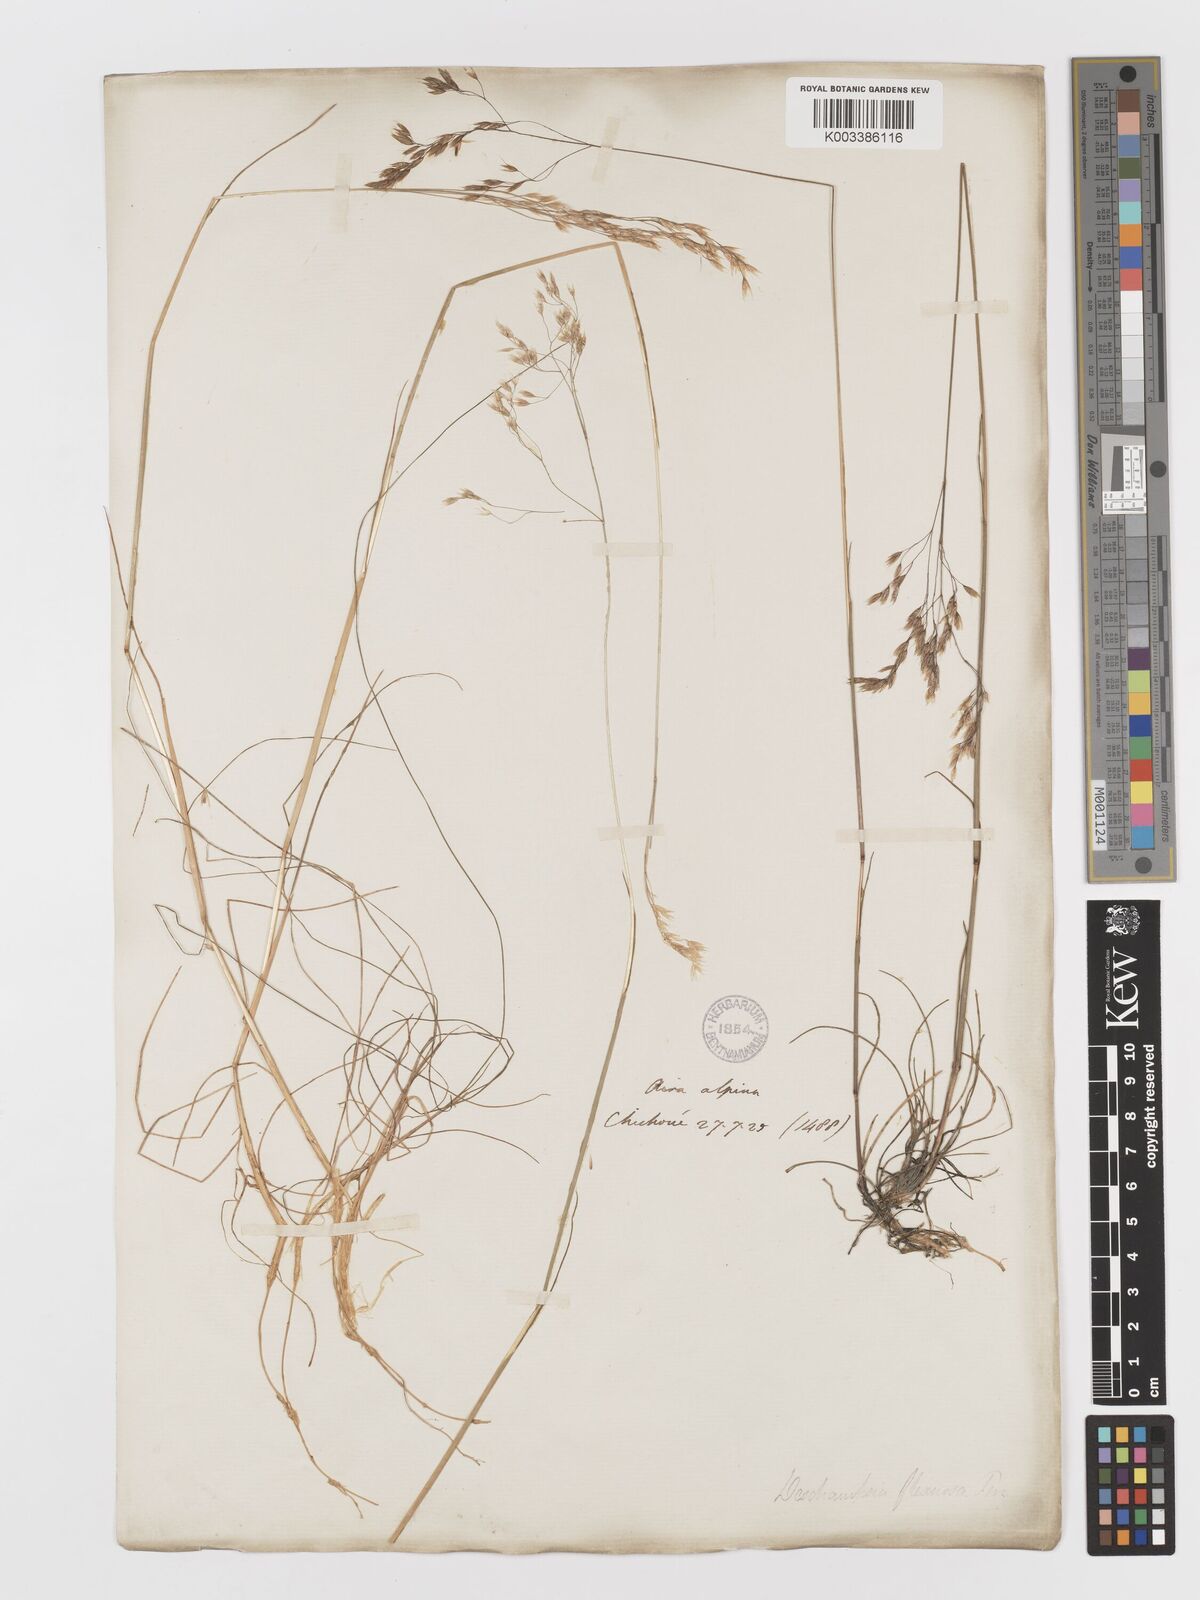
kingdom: Plantae
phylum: Tracheophyta
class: Liliopsida
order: Poales
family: Poaceae
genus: Avenella
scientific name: Avenella flexuosa
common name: Wavy hairgrass
